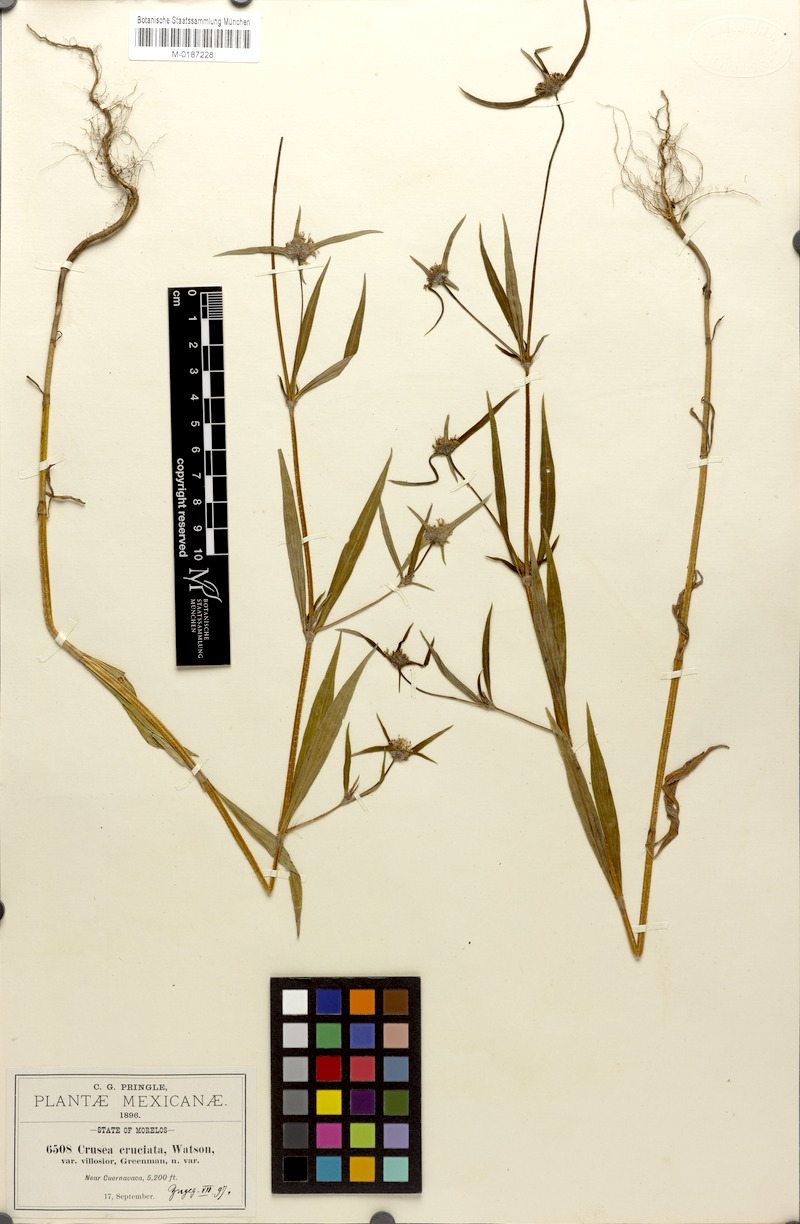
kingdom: Plantae
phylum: Tracheophyta
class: Magnoliopsida
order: Gentianales
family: Rubiaceae
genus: Crusea
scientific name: Crusea setosa
